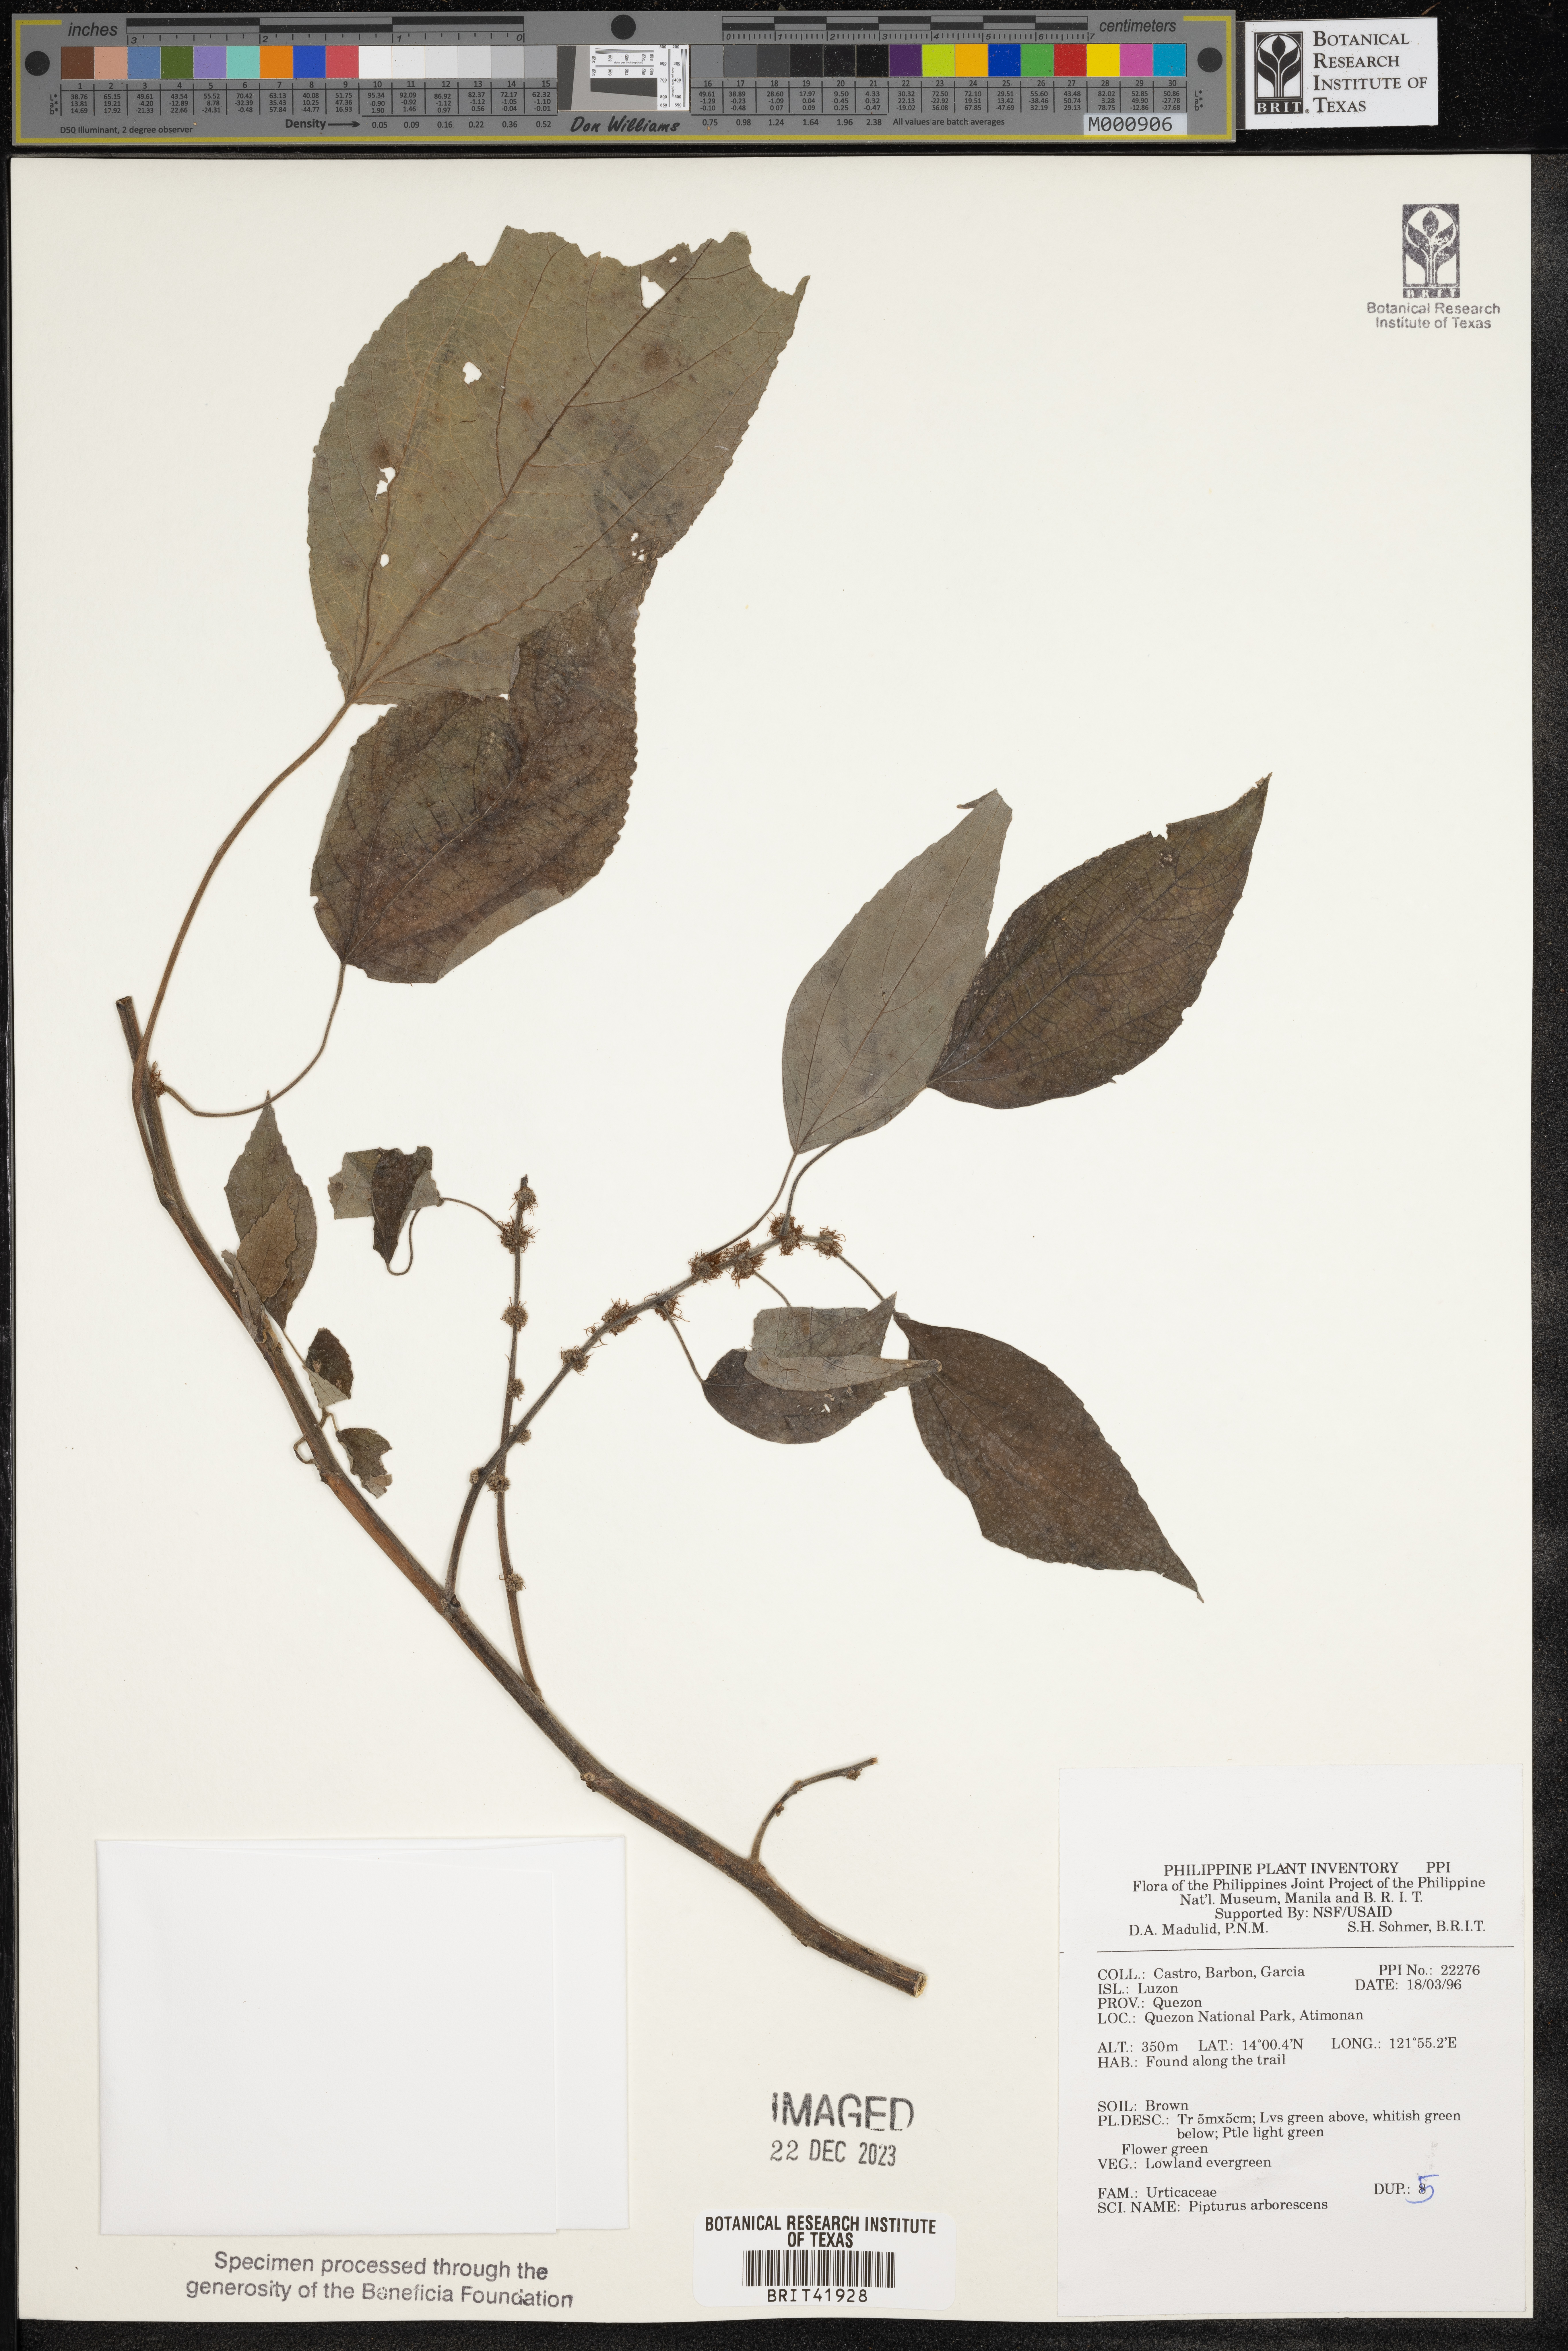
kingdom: Plantae
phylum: Tracheophyta
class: Magnoliopsida
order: Rosales
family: Urticaceae
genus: Pipturus
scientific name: Pipturus arborescens
